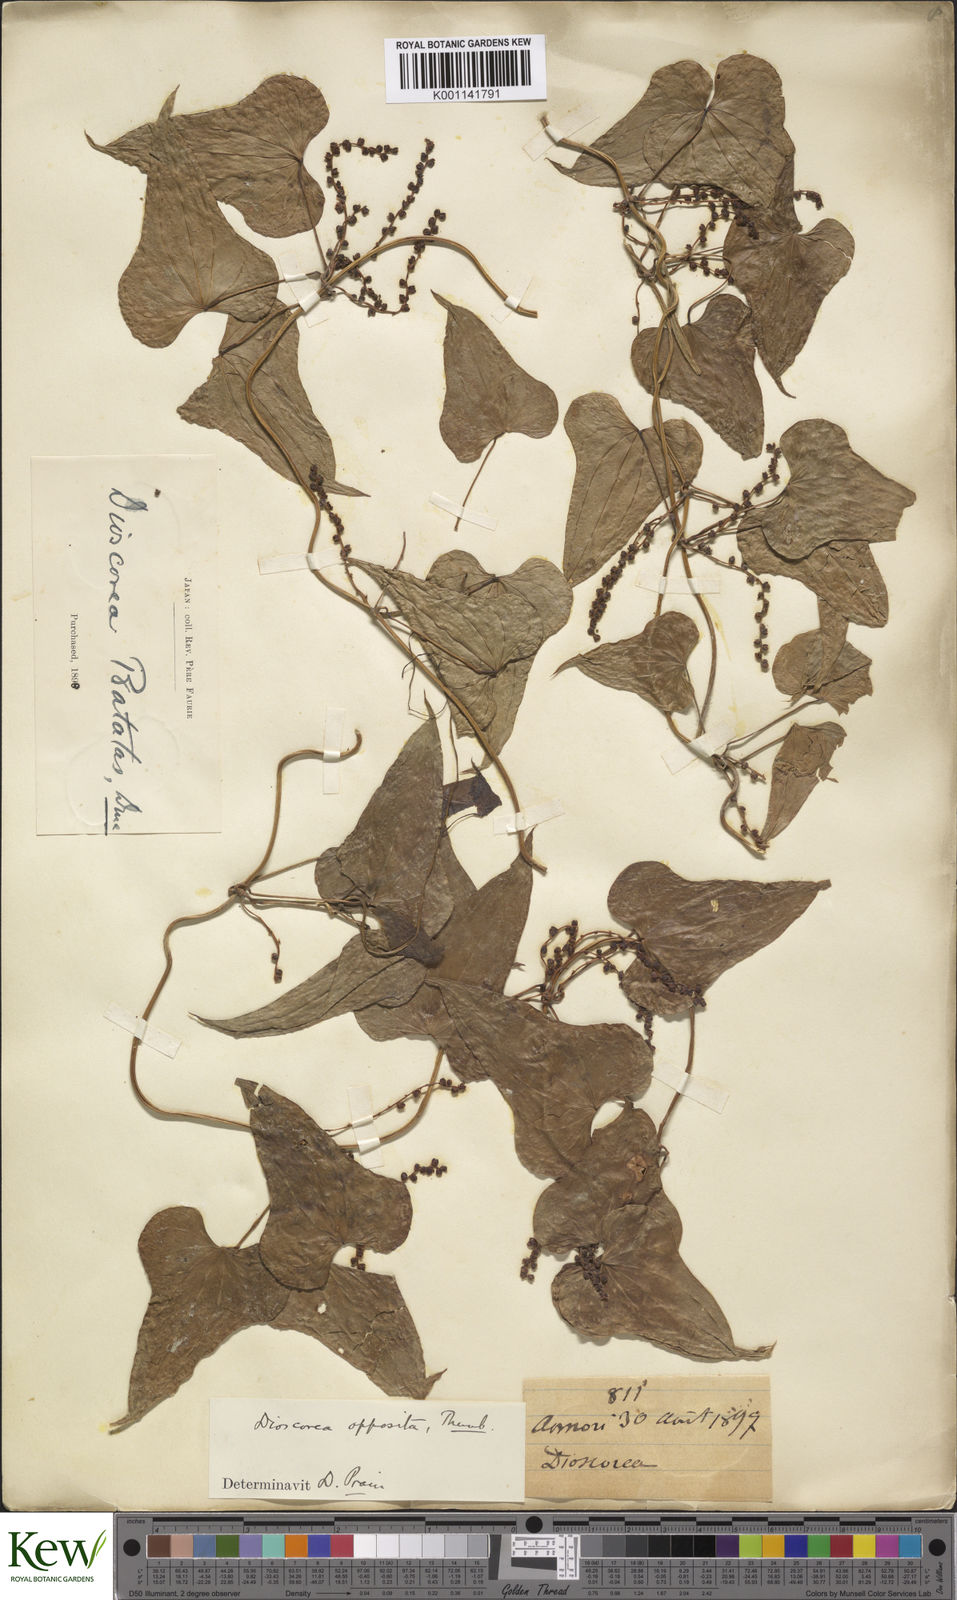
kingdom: Plantae
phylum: Tracheophyta
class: Liliopsida
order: Dioscoreales
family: Dioscoreaceae
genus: Dioscorea
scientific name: Dioscorea oppositifolia
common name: Chinese yam
